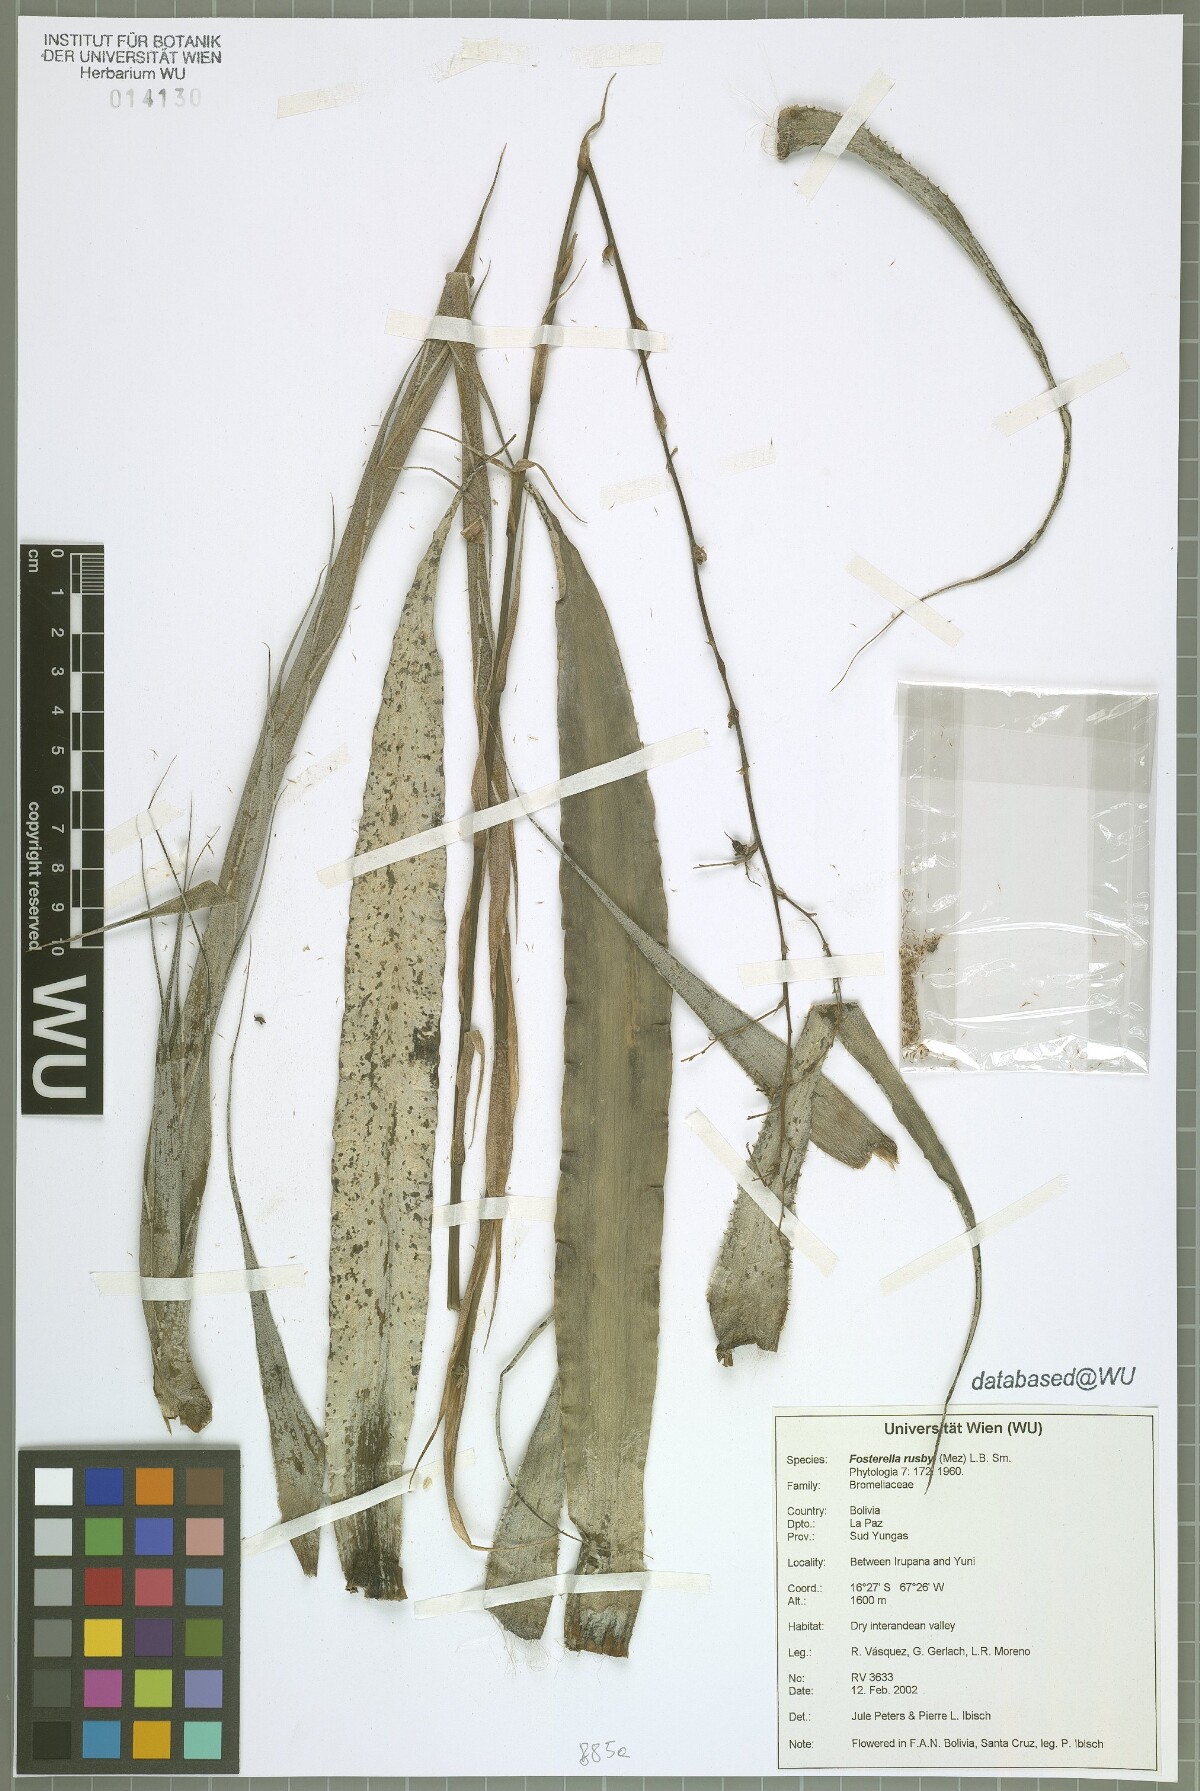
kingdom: Plantae
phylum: Tracheophyta
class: Liliopsida
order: Poales
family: Bromeliaceae
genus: Fosterella
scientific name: Fosterella rusbyi
